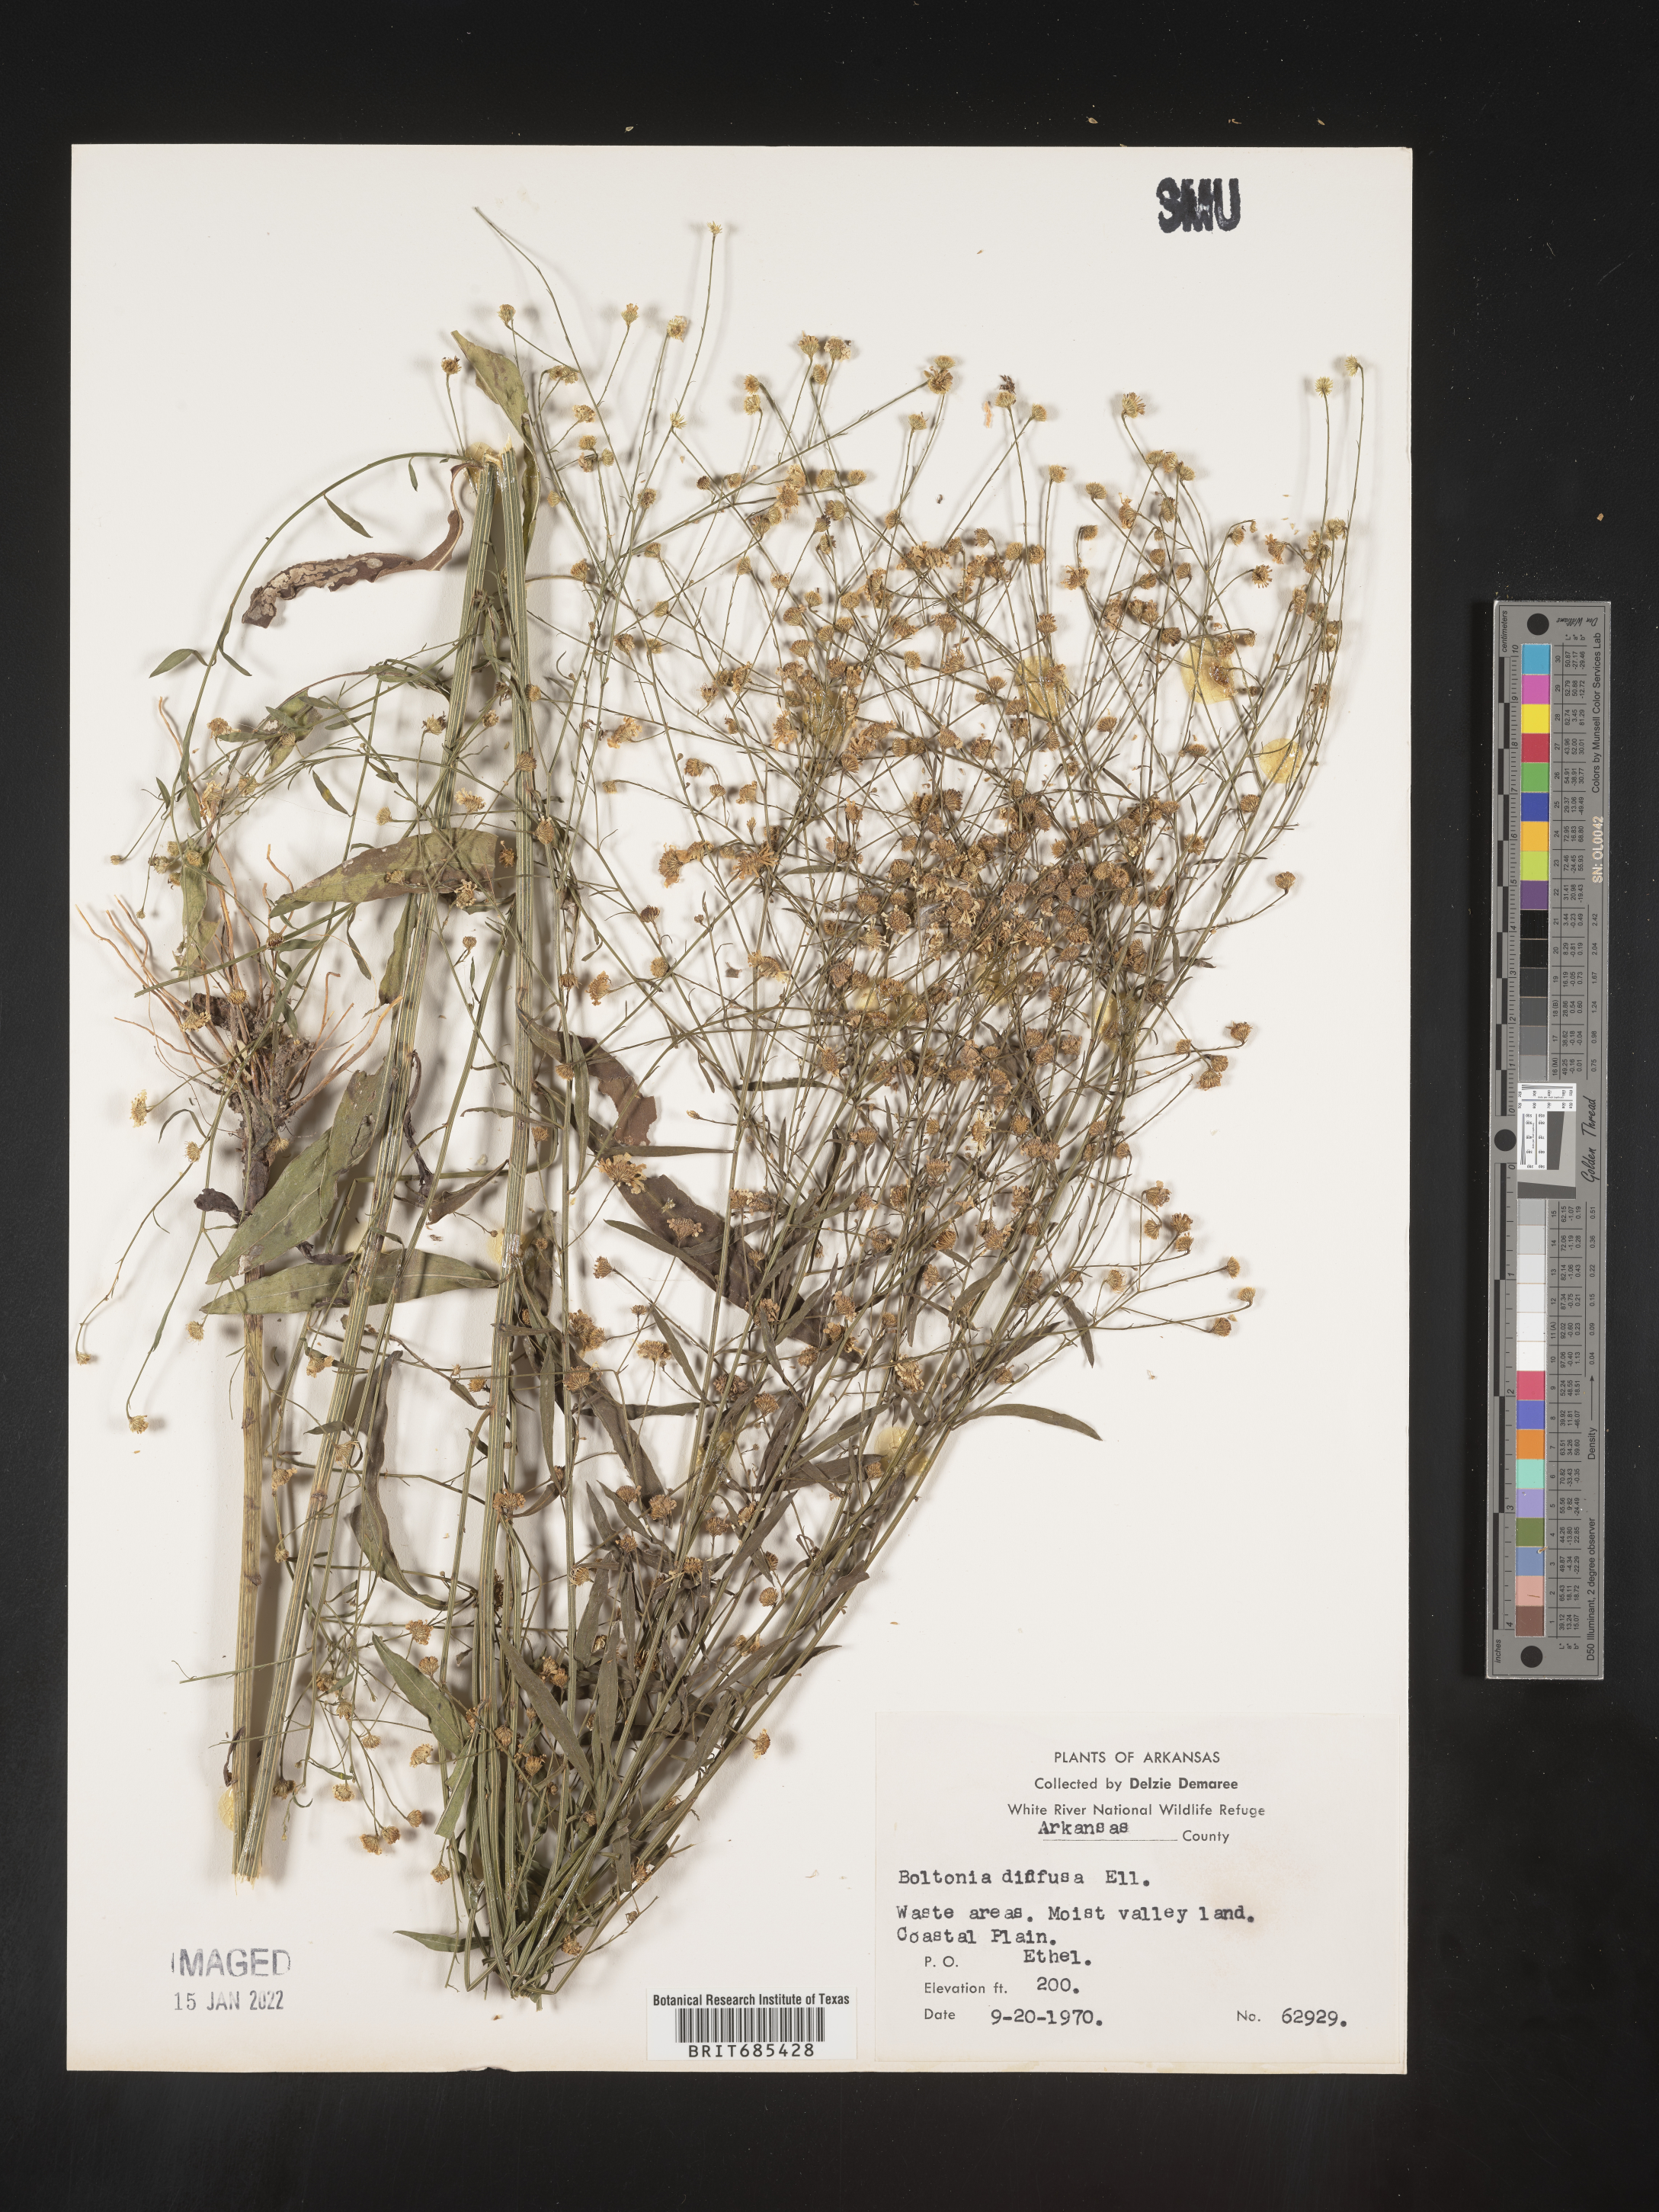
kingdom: Plantae
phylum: Tracheophyta
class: Magnoliopsida
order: Asterales
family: Asteraceae
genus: Boltonia
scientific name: Boltonia diffusa
